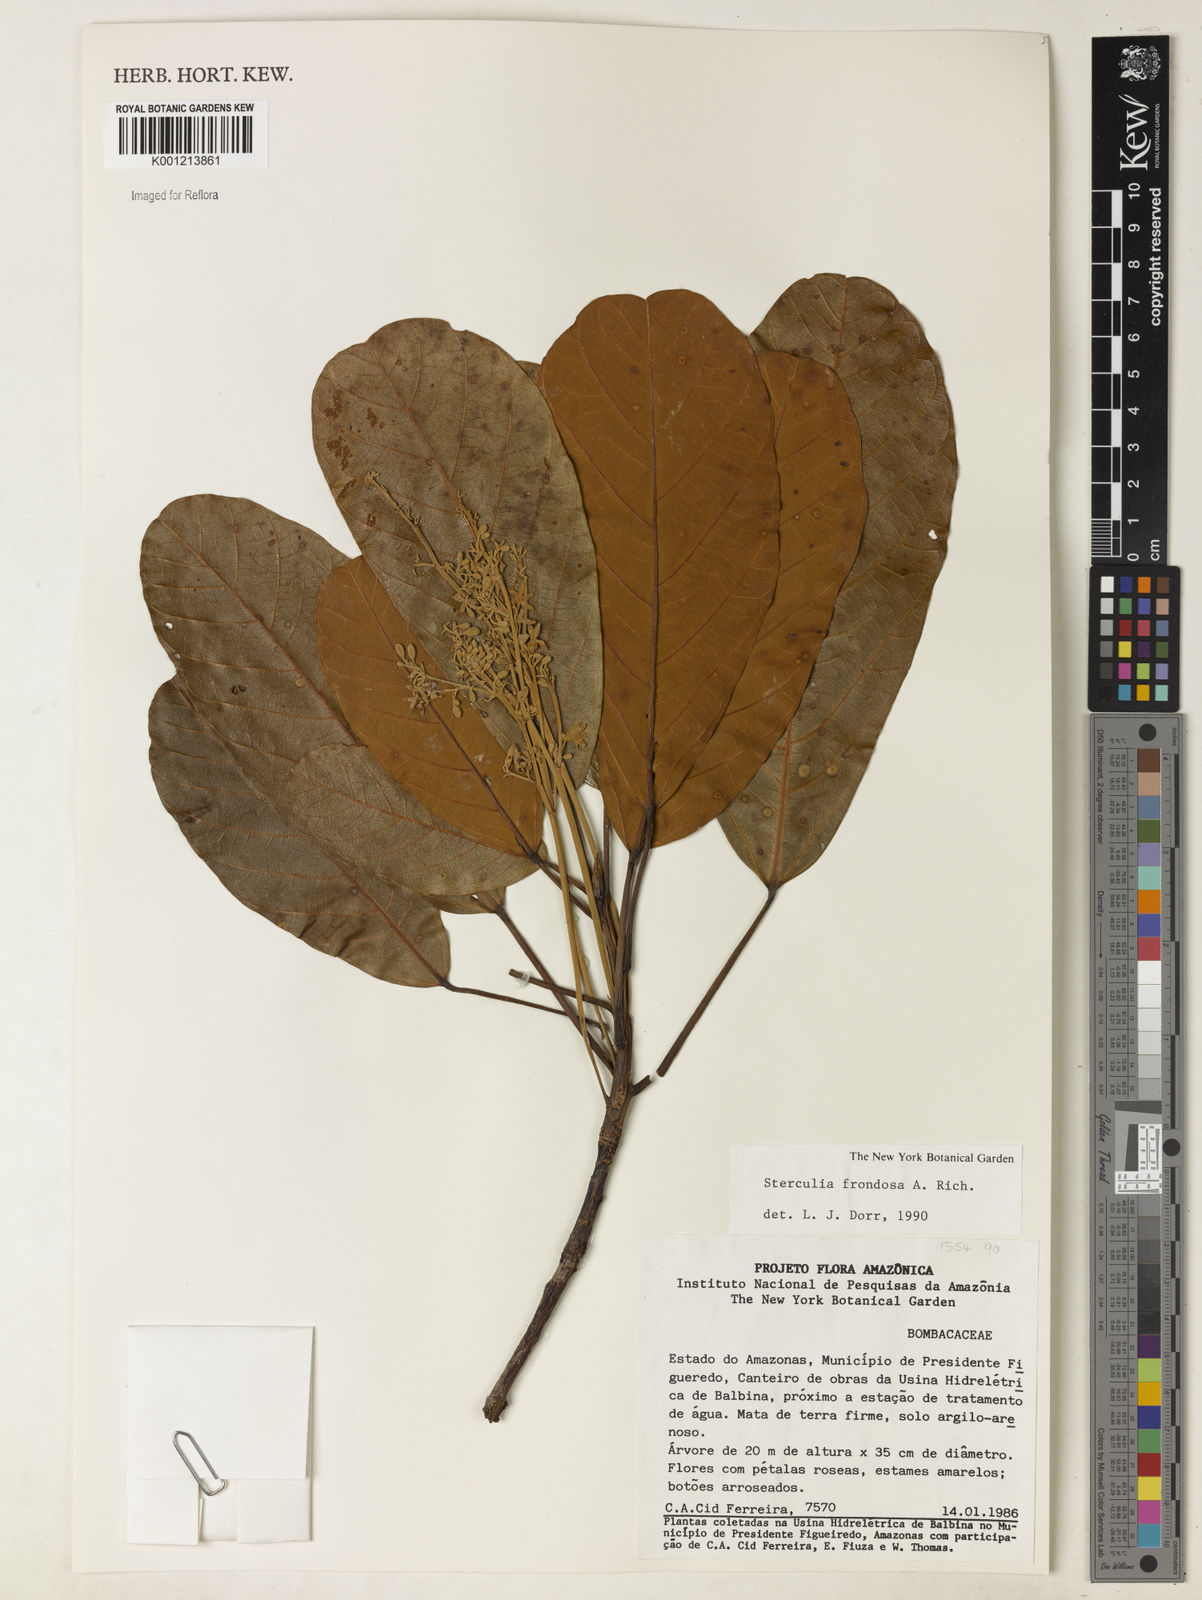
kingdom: Plantae
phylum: Tracheophyta
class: Magnoliopsida
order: Malvales
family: Malvaceae
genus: Sterculia
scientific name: Sterculia frondosa
